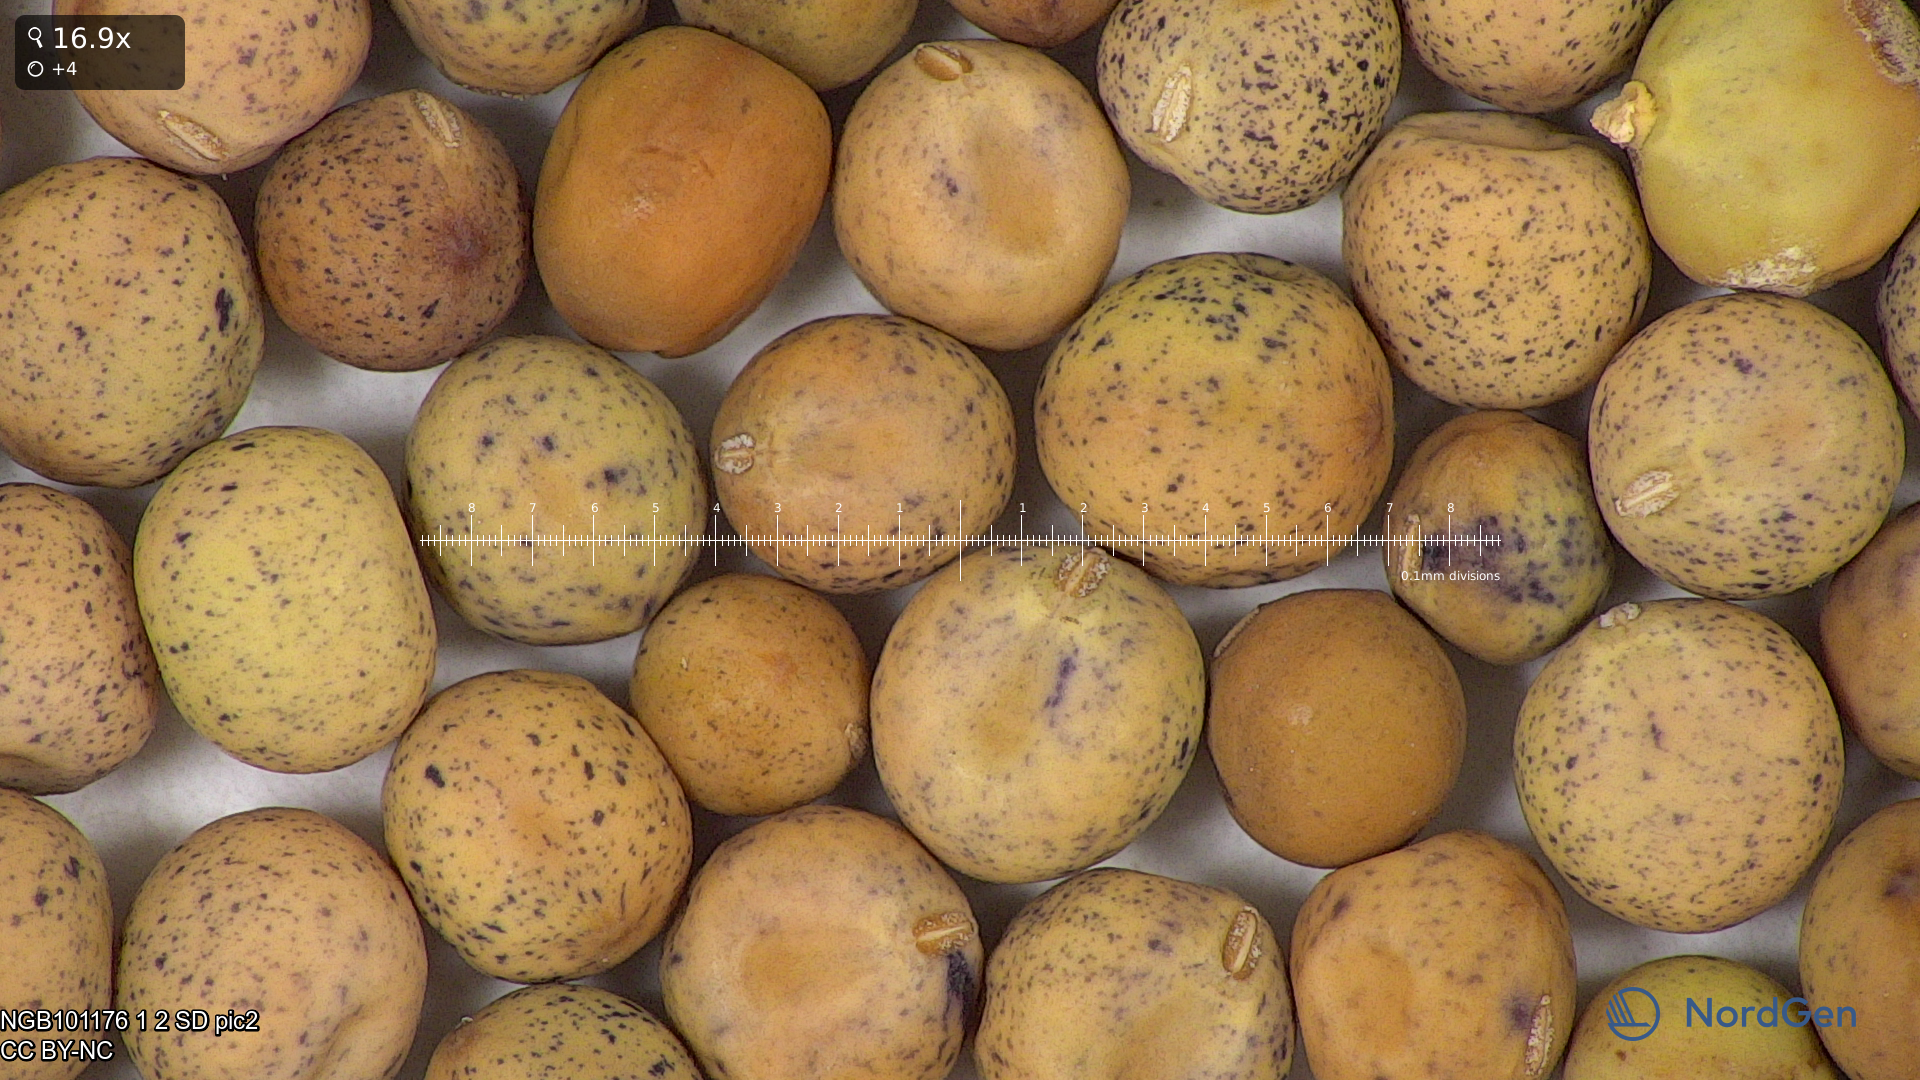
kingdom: Plantae
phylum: Tracheophyta
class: Magnoliopsida
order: Fabales
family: Fabaceae
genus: Lathyrus
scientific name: Lathyrus oleraceus
